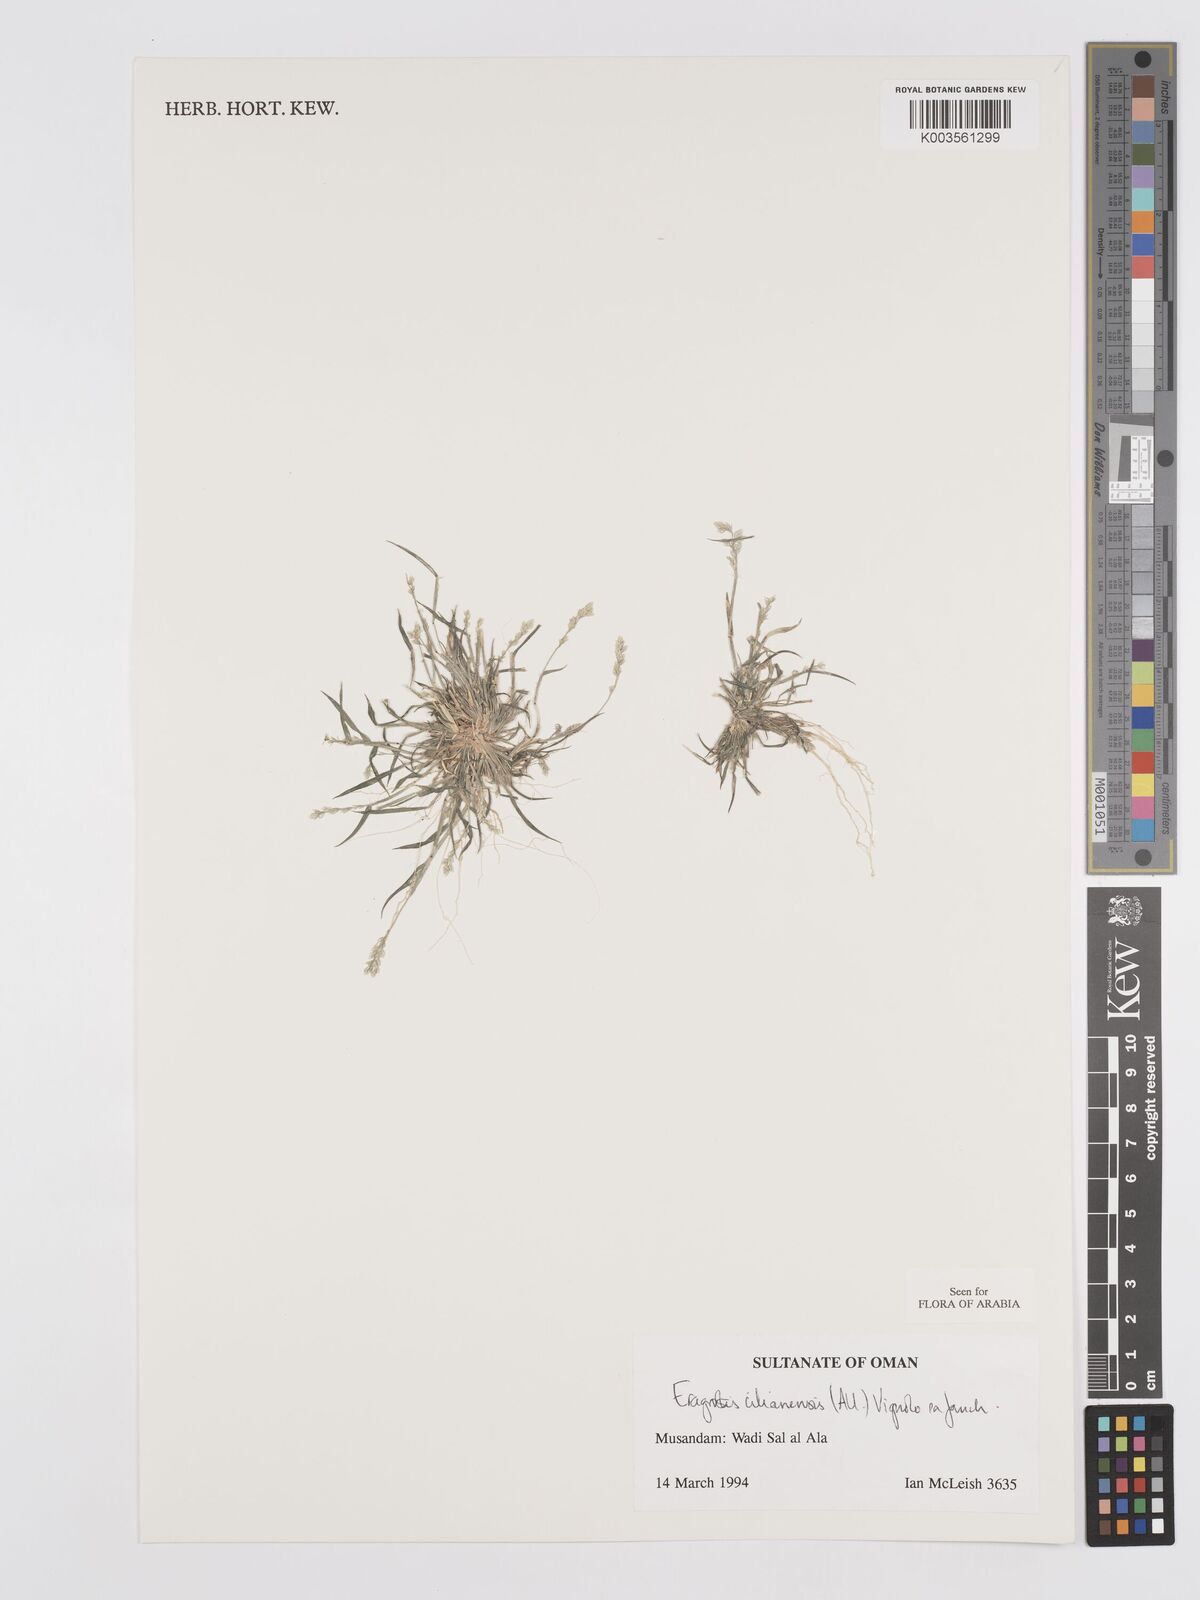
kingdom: Plantae
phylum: Tracheophyta
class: Liliopsida
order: Poales
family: Poaceae
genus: Eragrostis
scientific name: Eragrostis cilianensis
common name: Stinkgrass
